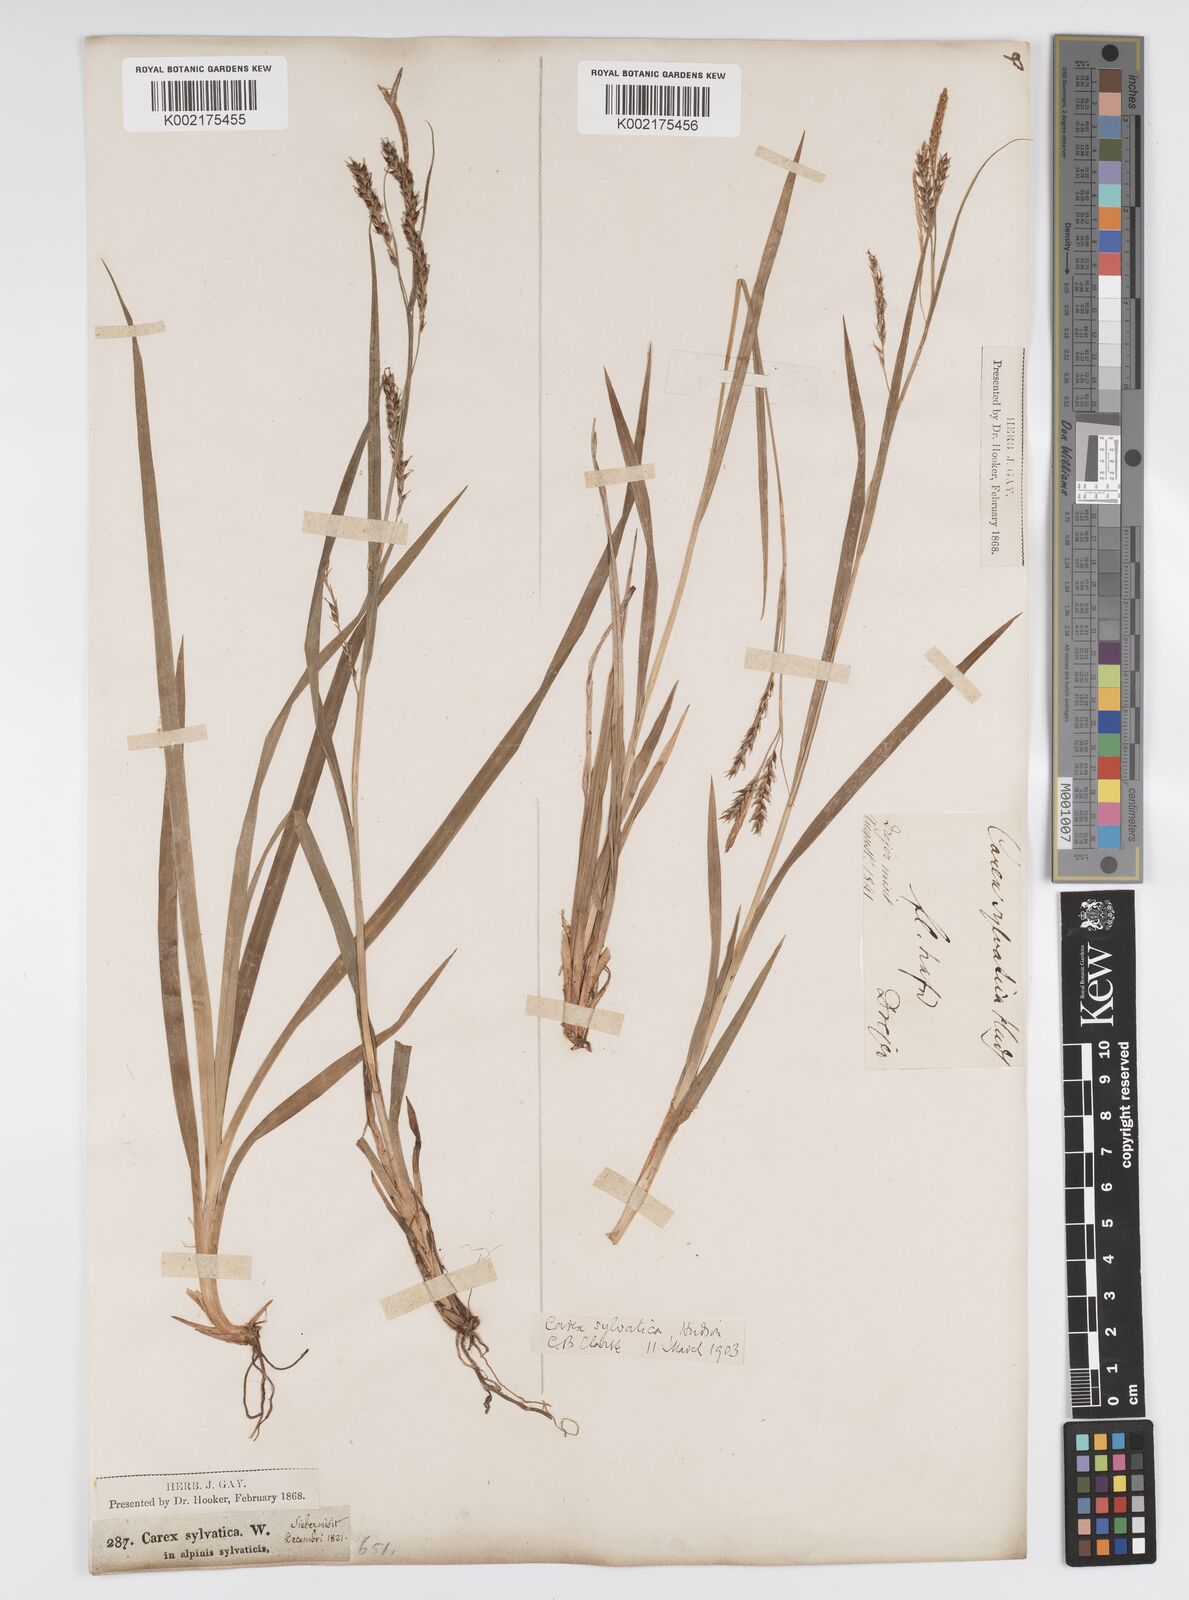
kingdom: Plantae
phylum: Tracheophyta
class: Liliopsida
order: Poales
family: Cyperaceae
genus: Carex
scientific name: Carex sylvatica
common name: Wood-sedge
